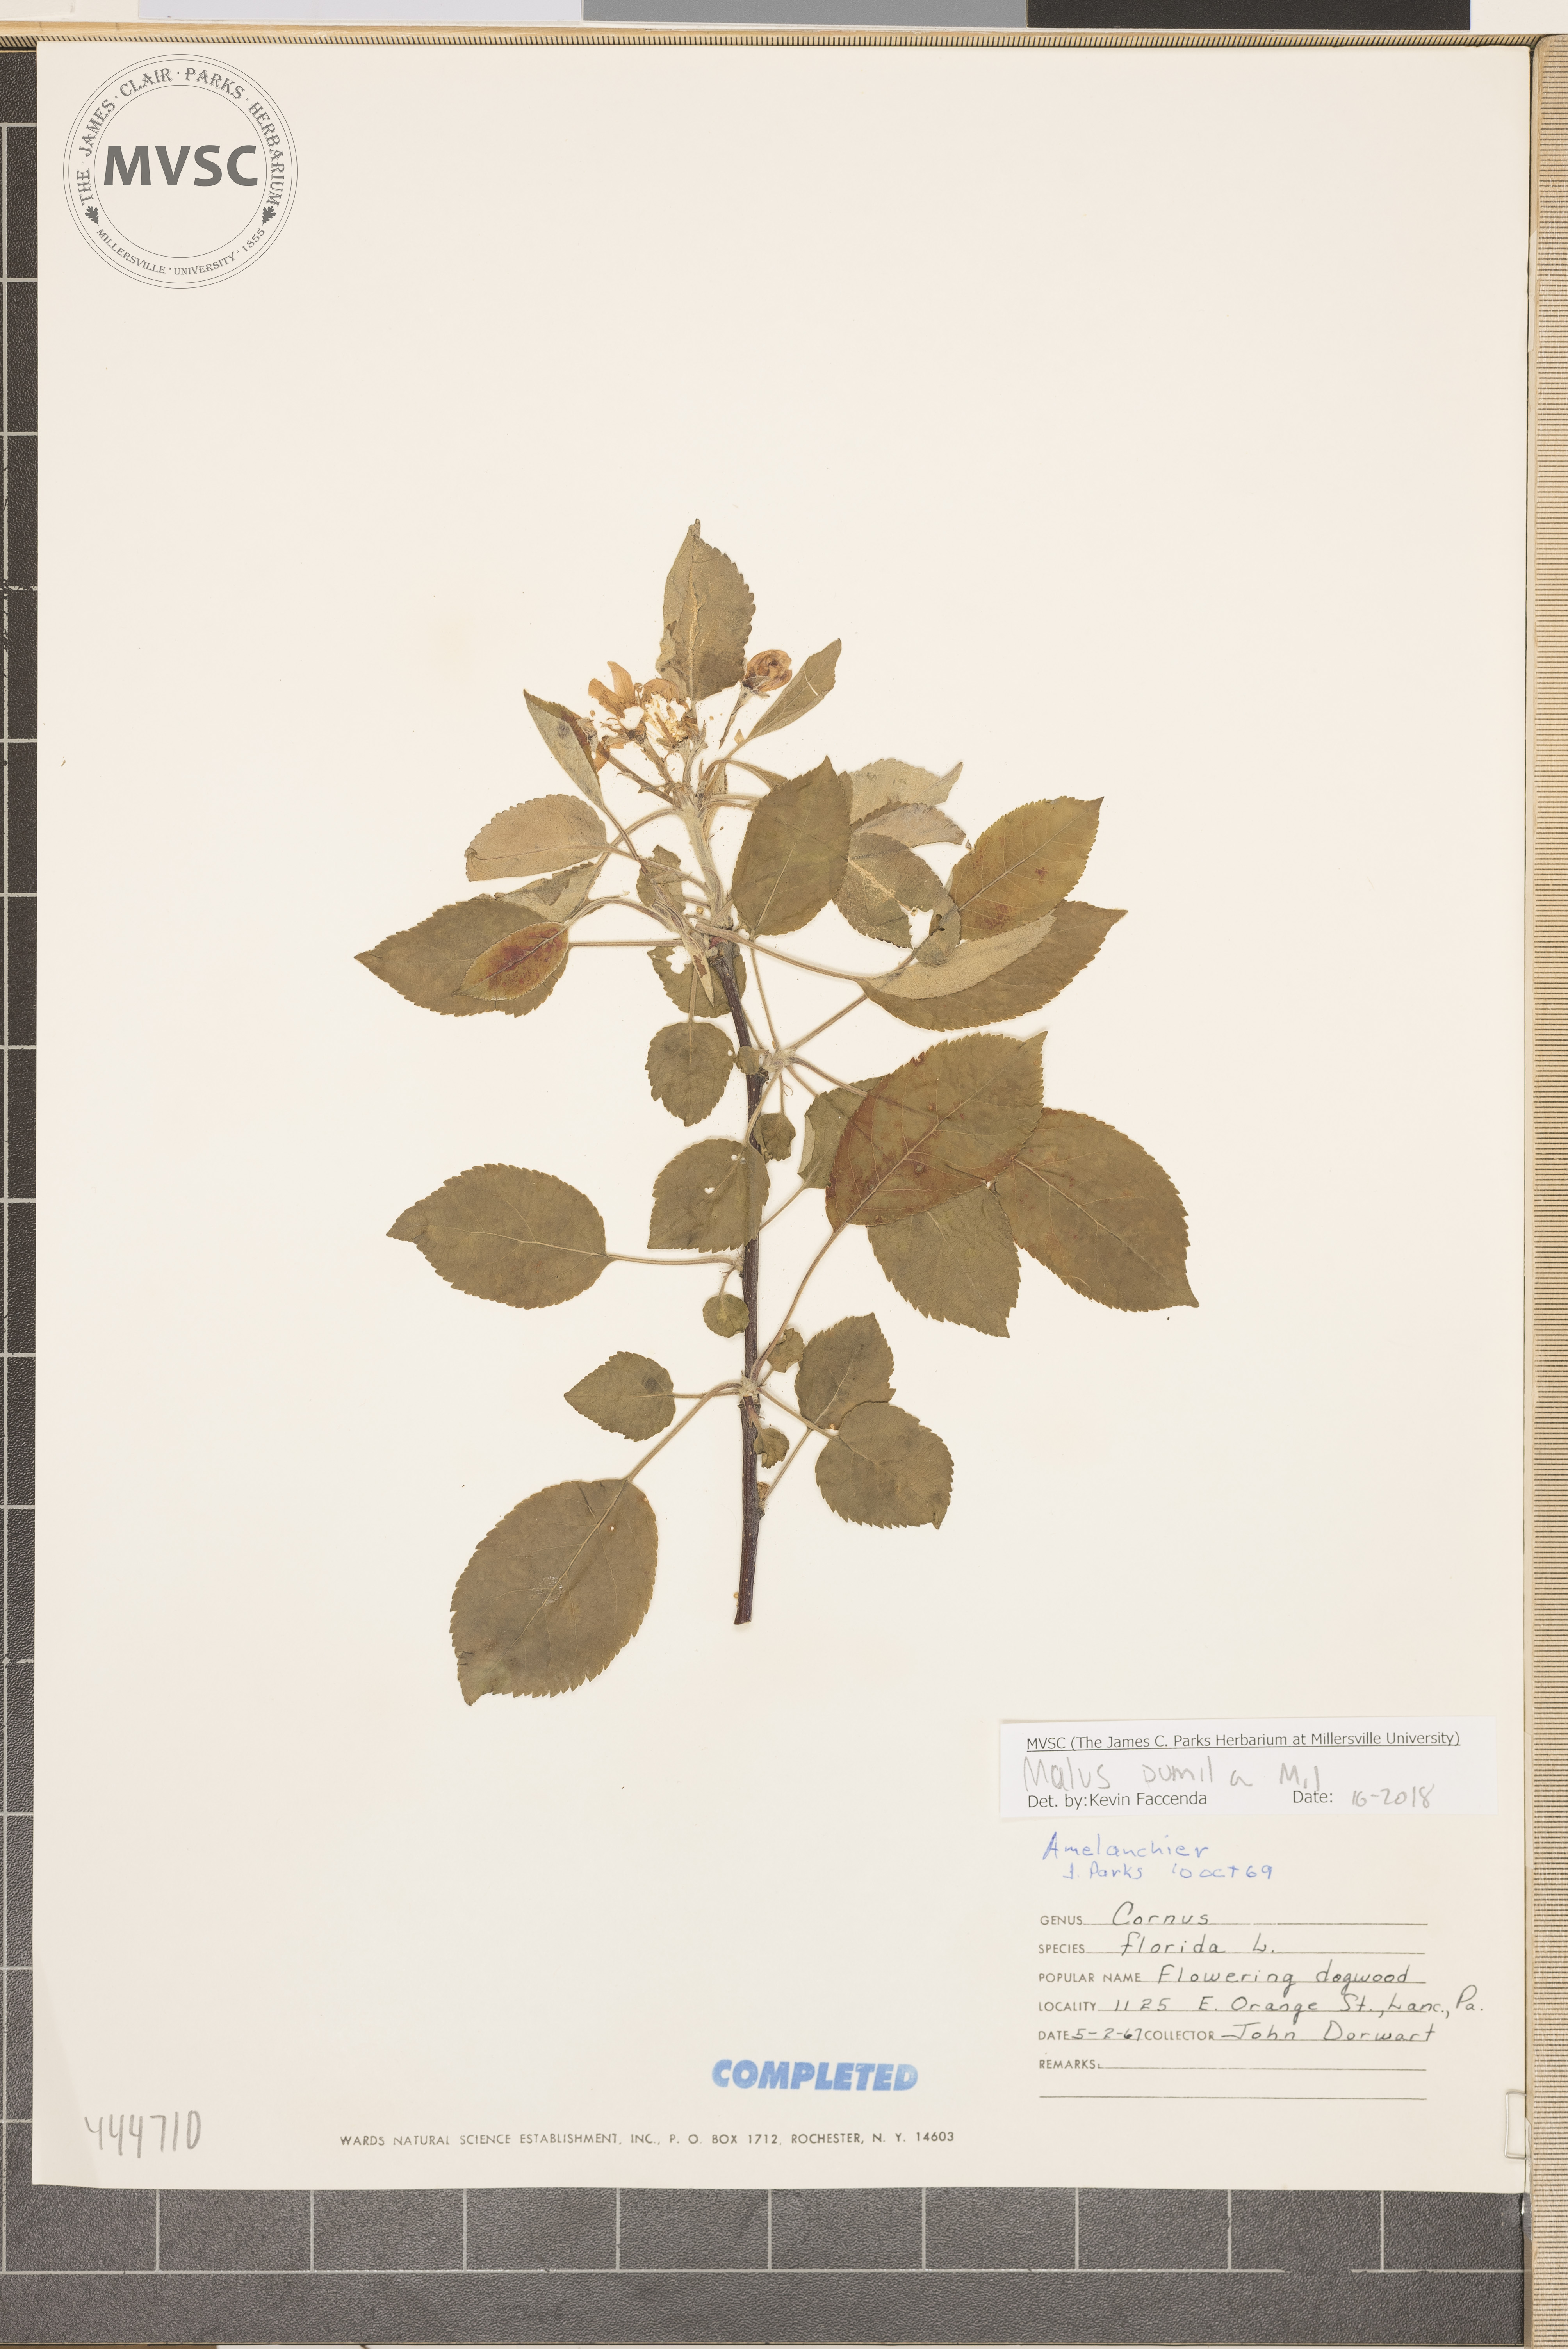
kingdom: Plantae
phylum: Tracheophyta
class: Magnoliopsida
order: Rosales
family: Rosaceae
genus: Malus
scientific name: Malus
